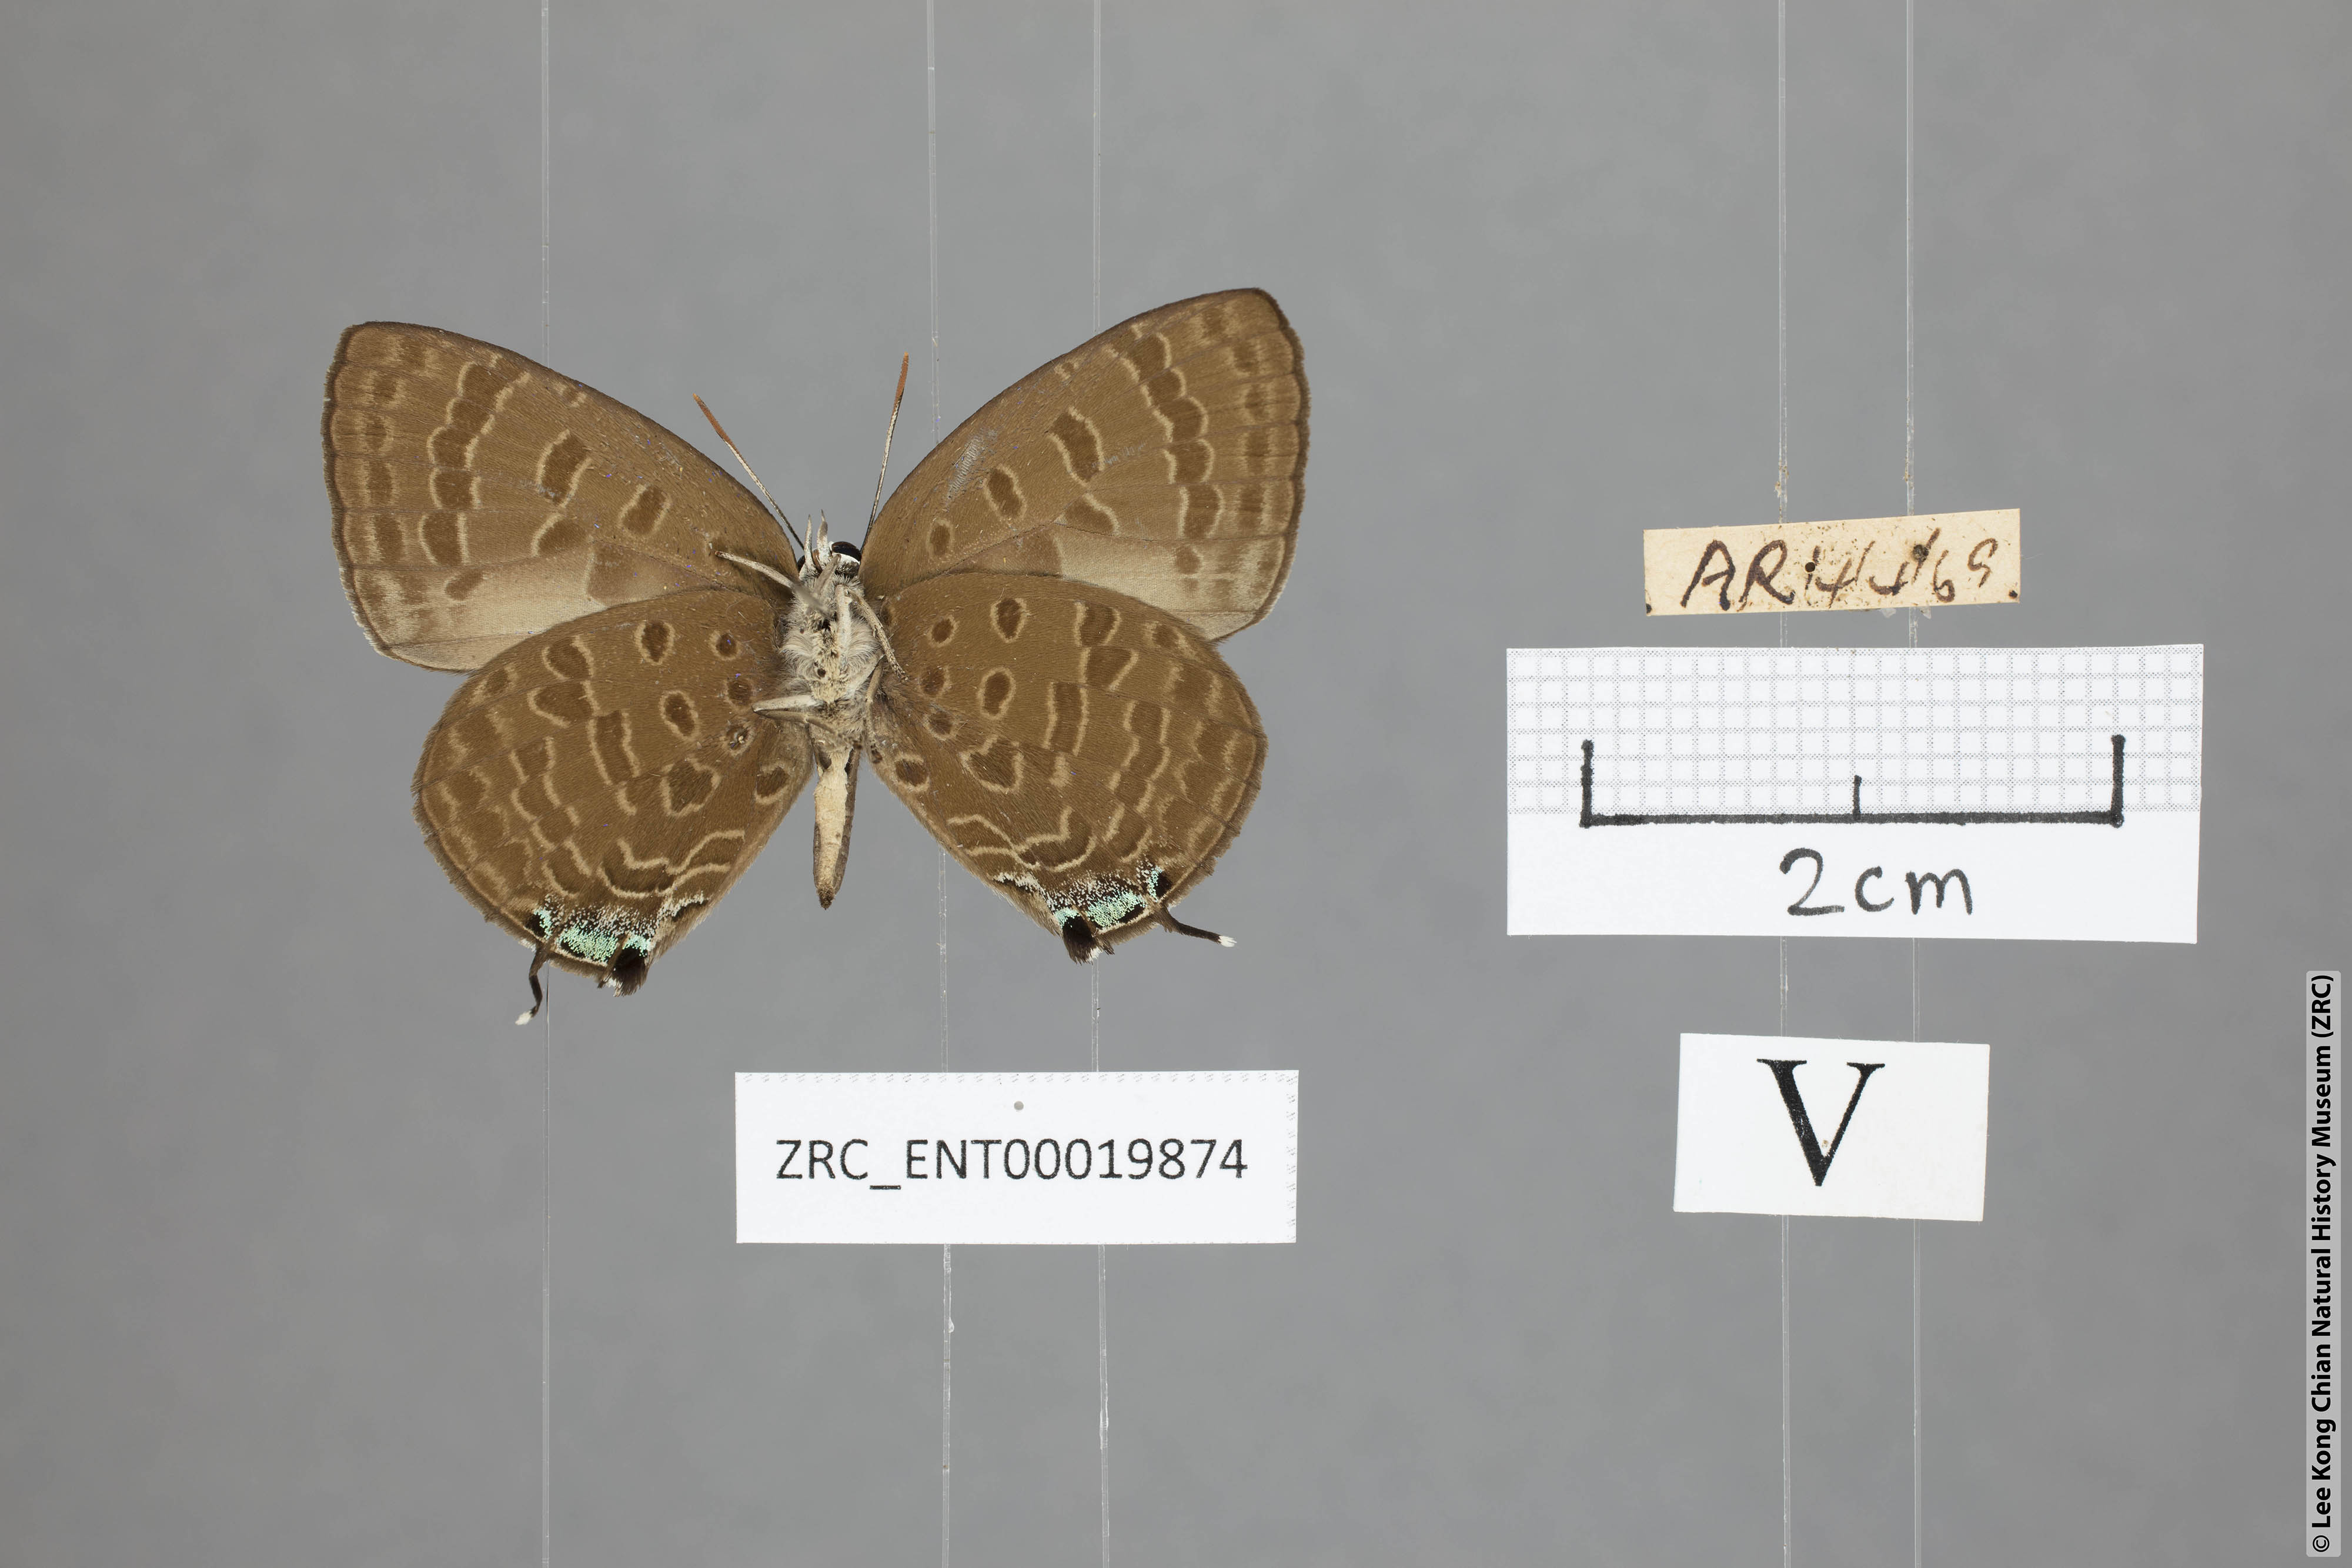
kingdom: Animalia
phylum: Arthropoda
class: Insecta
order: Lepidoptera
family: Lycaenidae
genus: Arhopala
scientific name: Arhopala sublustris
